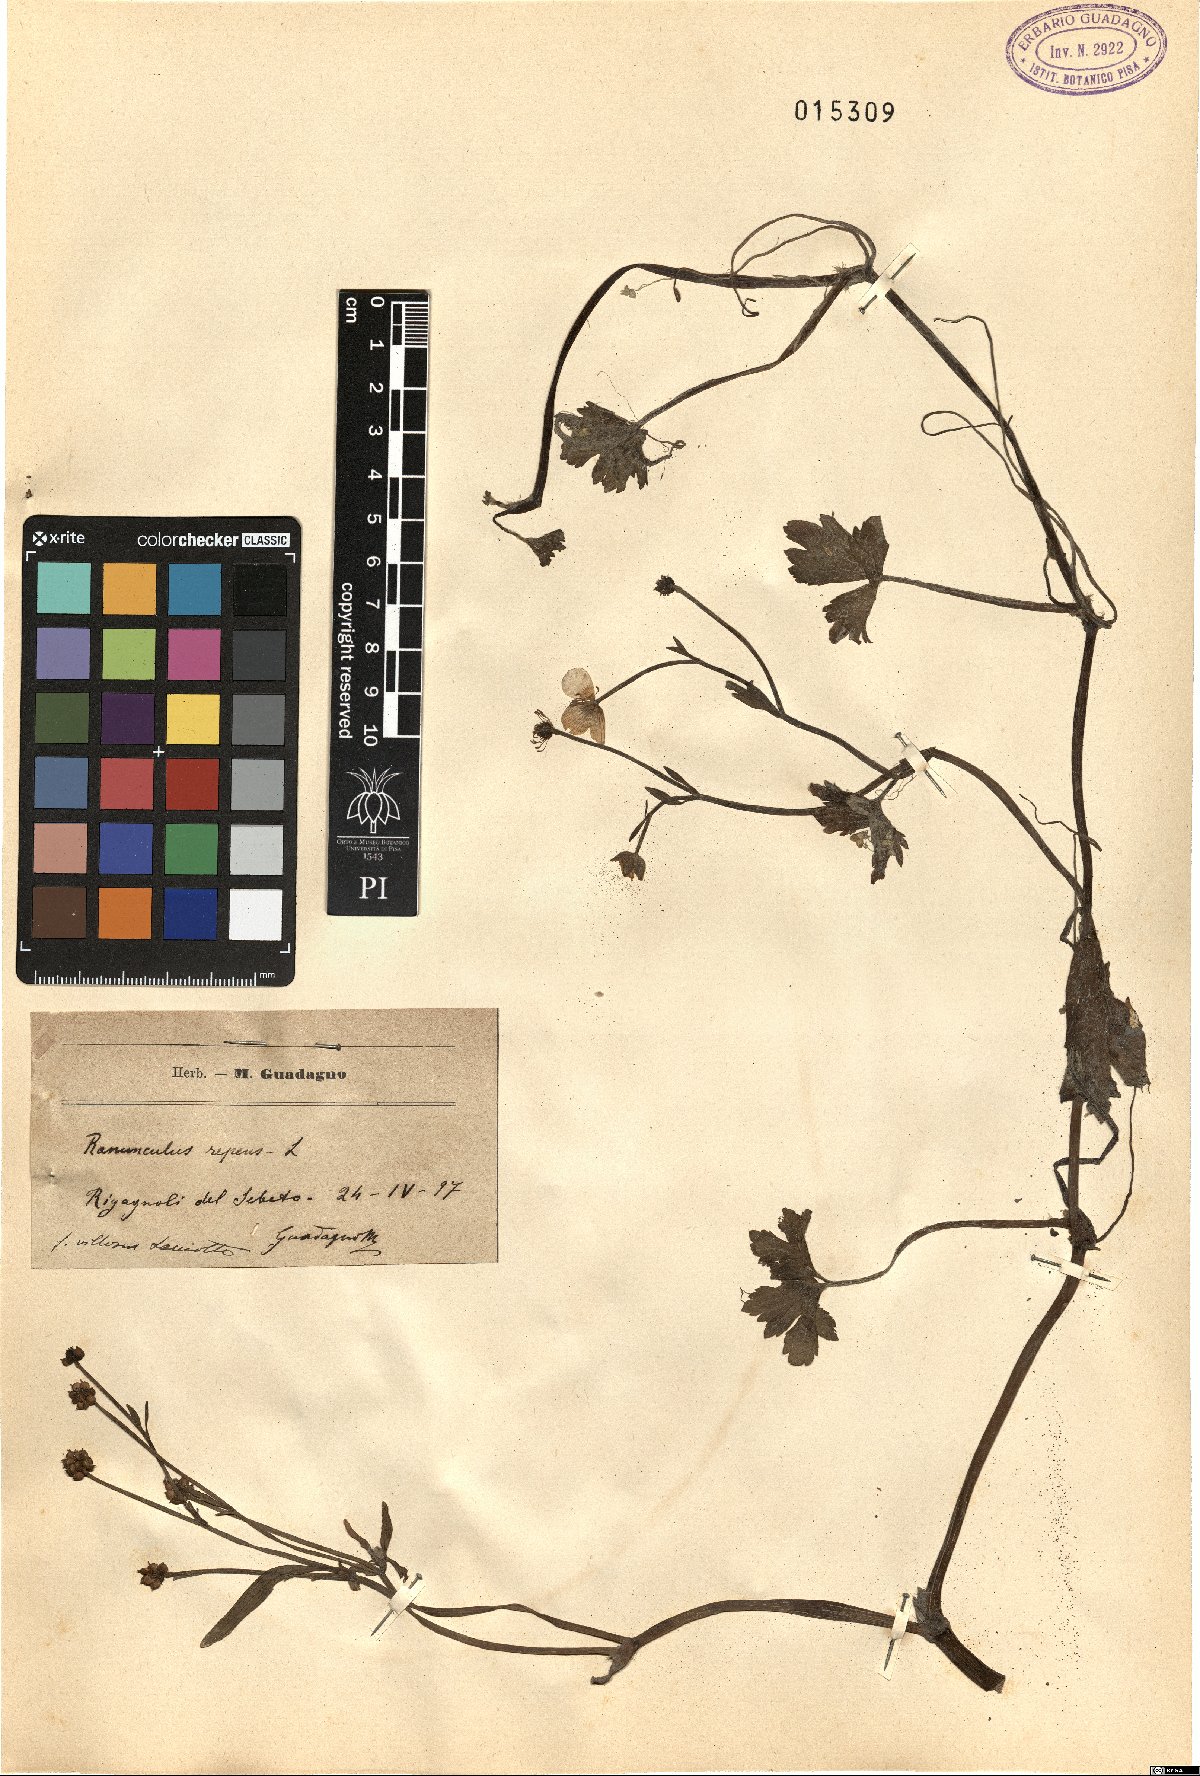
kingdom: Plantae
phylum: Tracheophyta
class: Magnoliopsida
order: Ranunculales
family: Ranunculaceae
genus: Ranunculus
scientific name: Ranunculus repens
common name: Creeping buttercup
